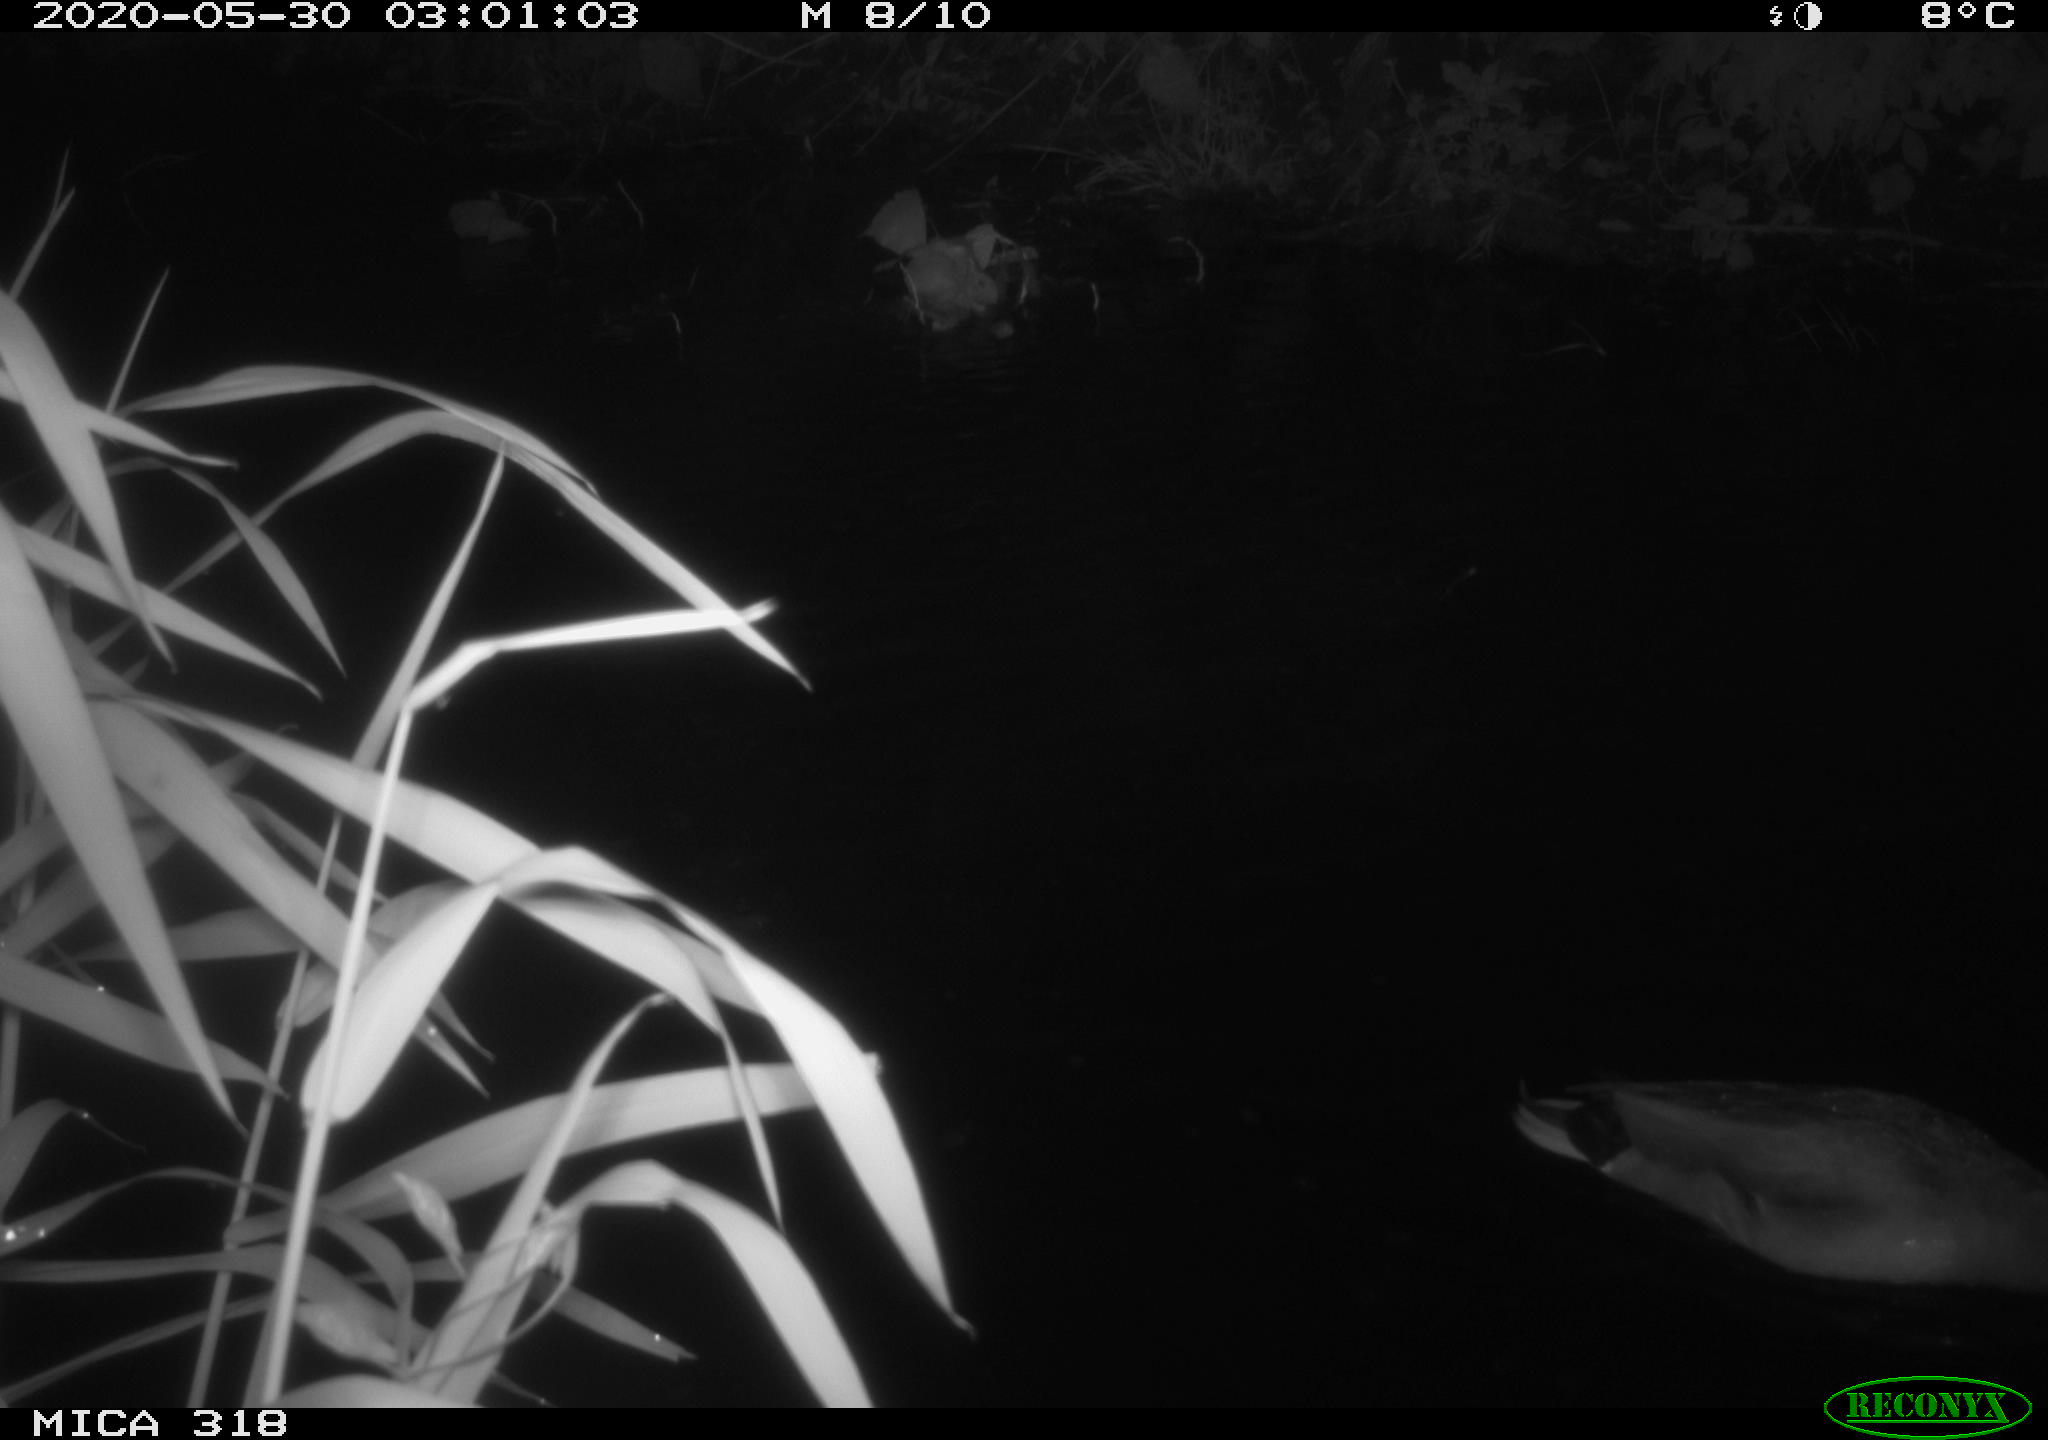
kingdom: Animalia
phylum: Chordata
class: Aves
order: Anseriformes
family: Anatidae
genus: Anas
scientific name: Anas platyrhynchos
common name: Mallard
